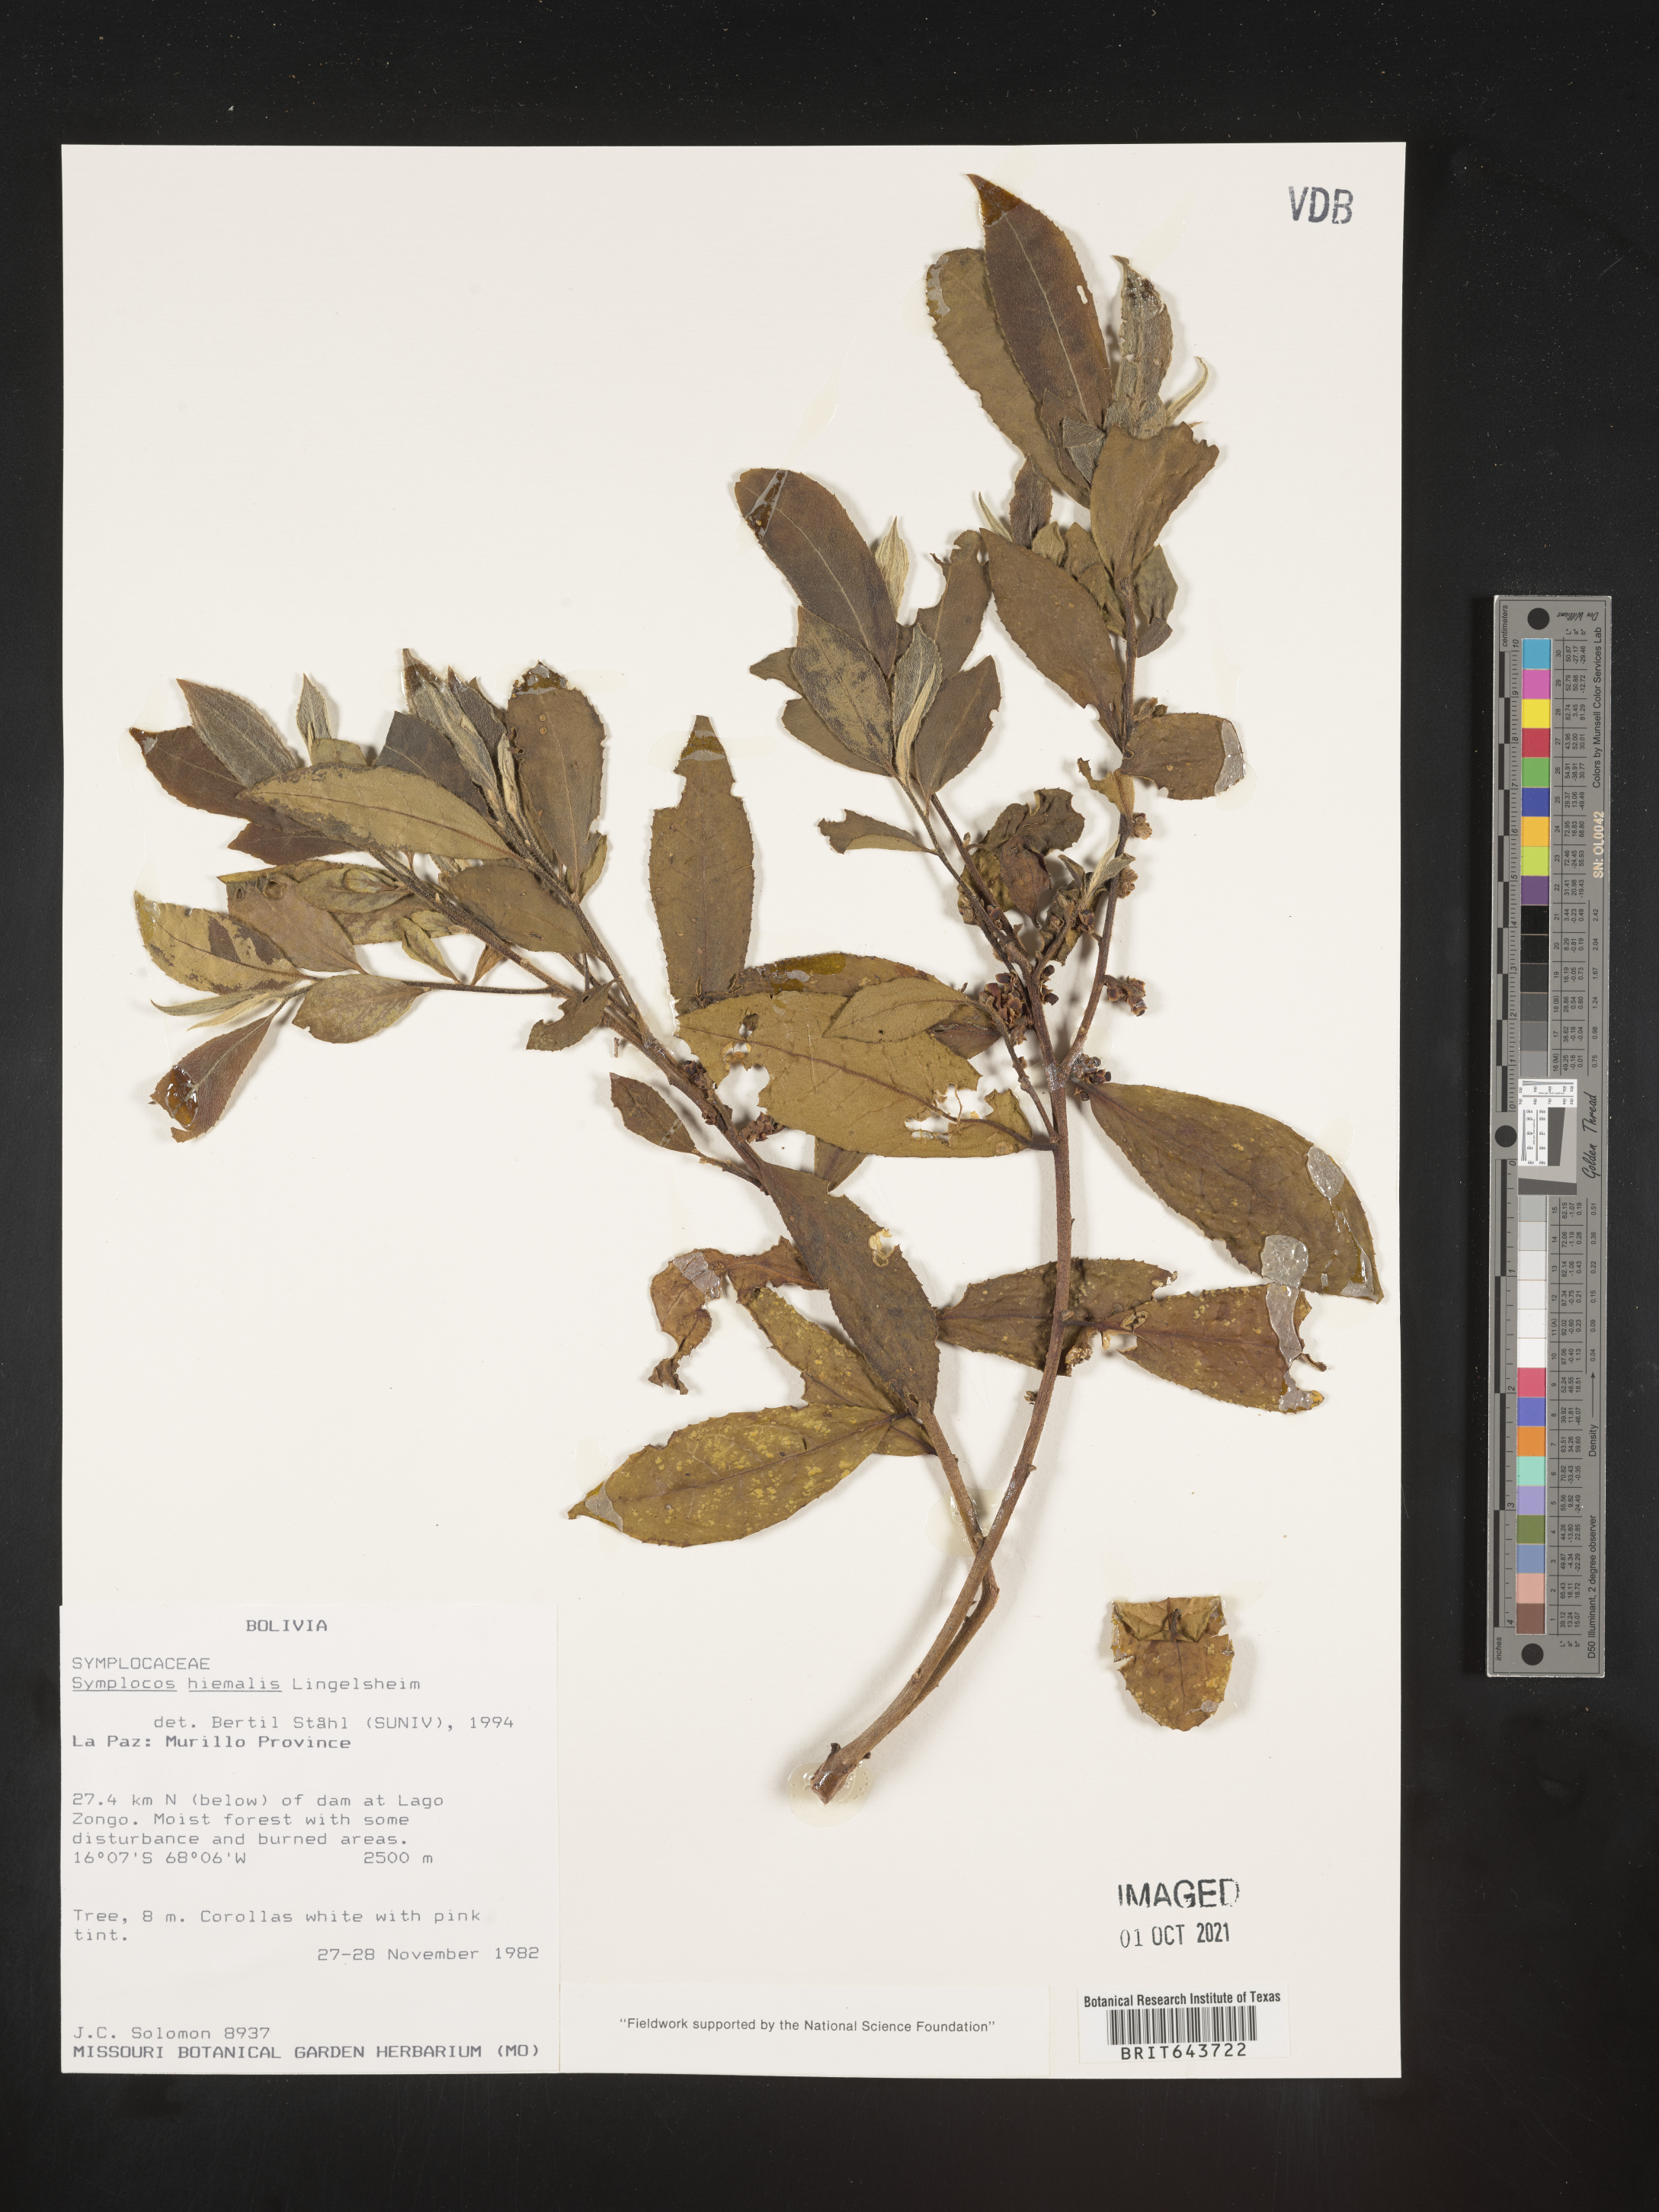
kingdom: Plantae
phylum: Tracheophyta
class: Magnoliopsida
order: Ericales
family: Symplocaceae
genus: Symplocos
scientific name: Symplocos
